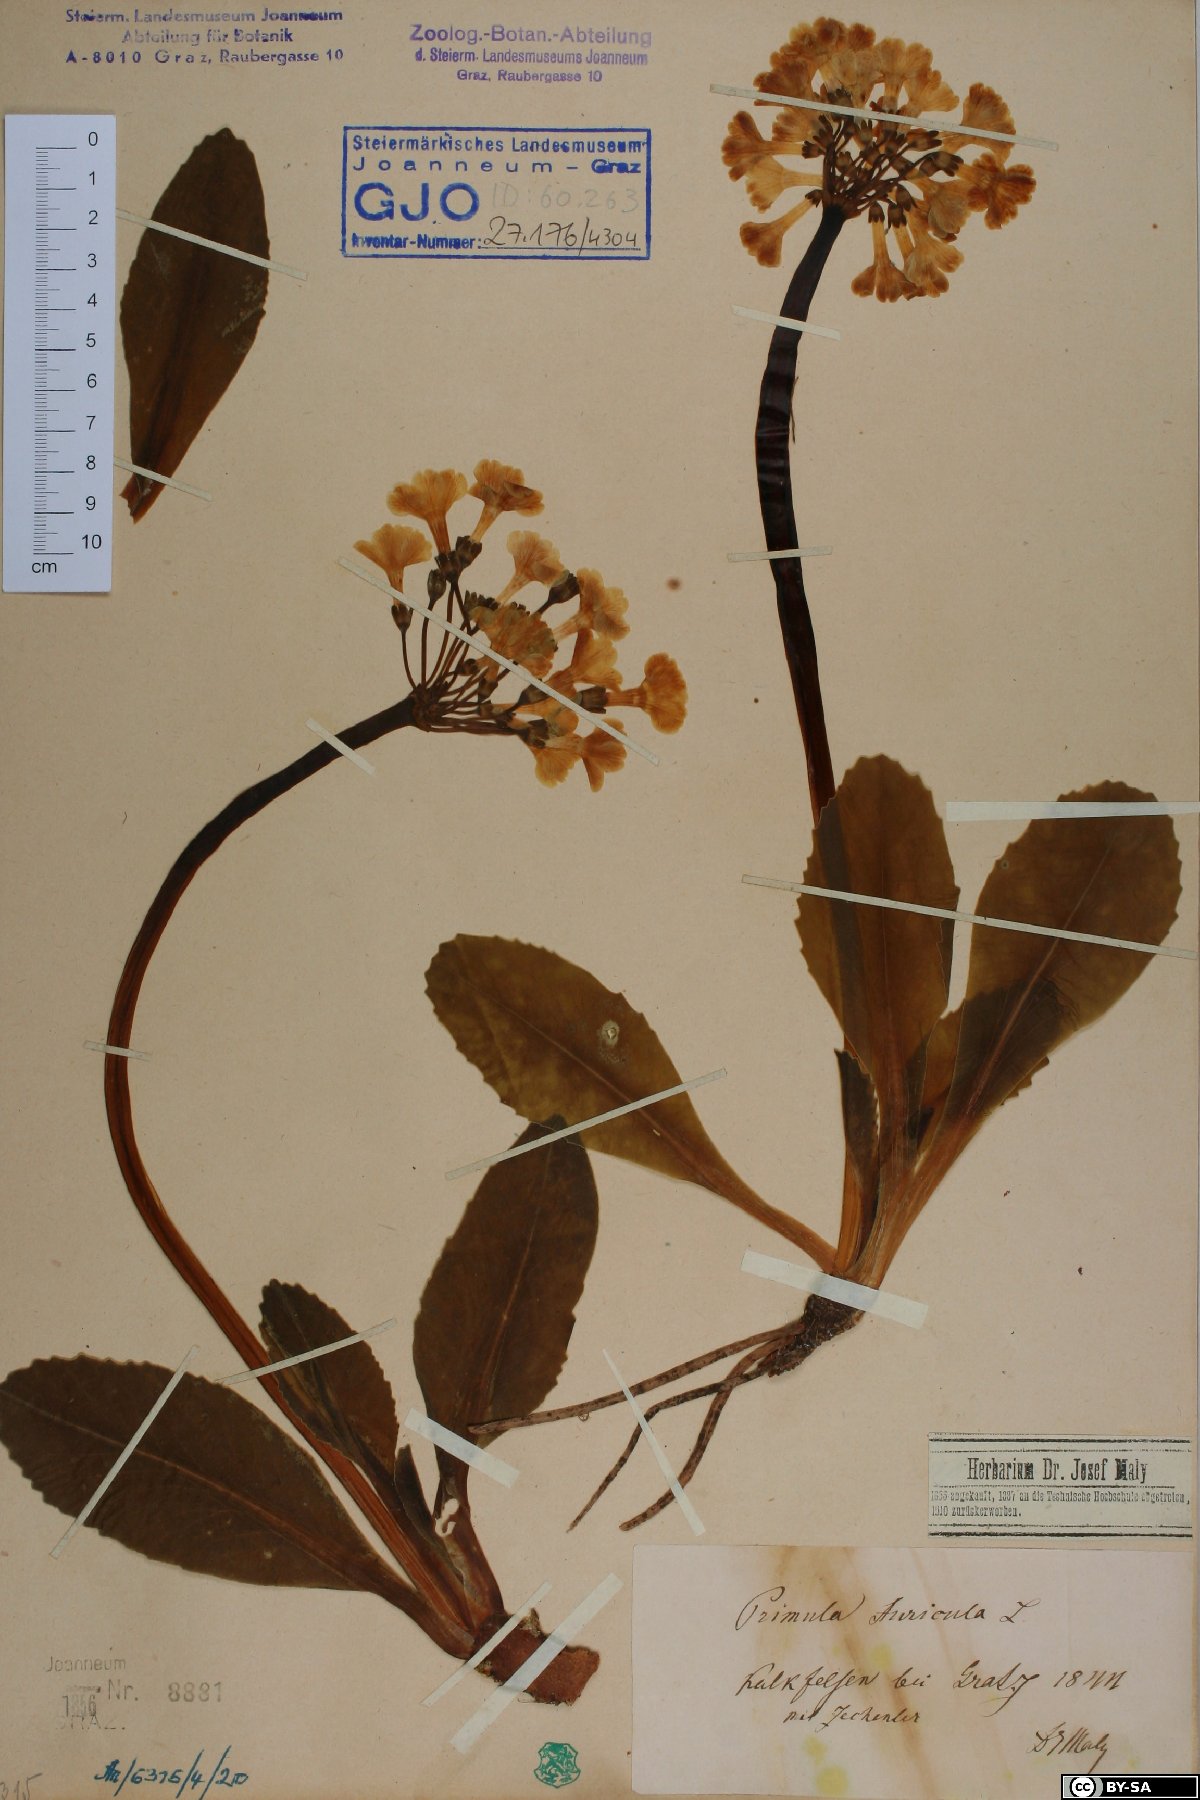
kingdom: Plantae
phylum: Tracheophyta
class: Magnoliopsida
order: Ericales
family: Primulaceae
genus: Primula
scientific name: Primula auricula
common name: Auricula
